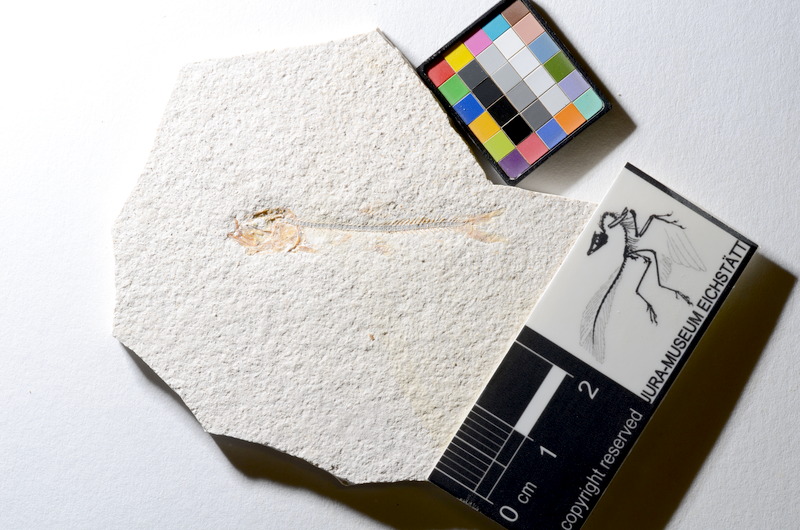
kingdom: Animalia
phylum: Chordata
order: Salmoniformes
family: Orthogonikleithridae
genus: Orthogonikleithrus
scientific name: Orthogonikleithrus hoelli
